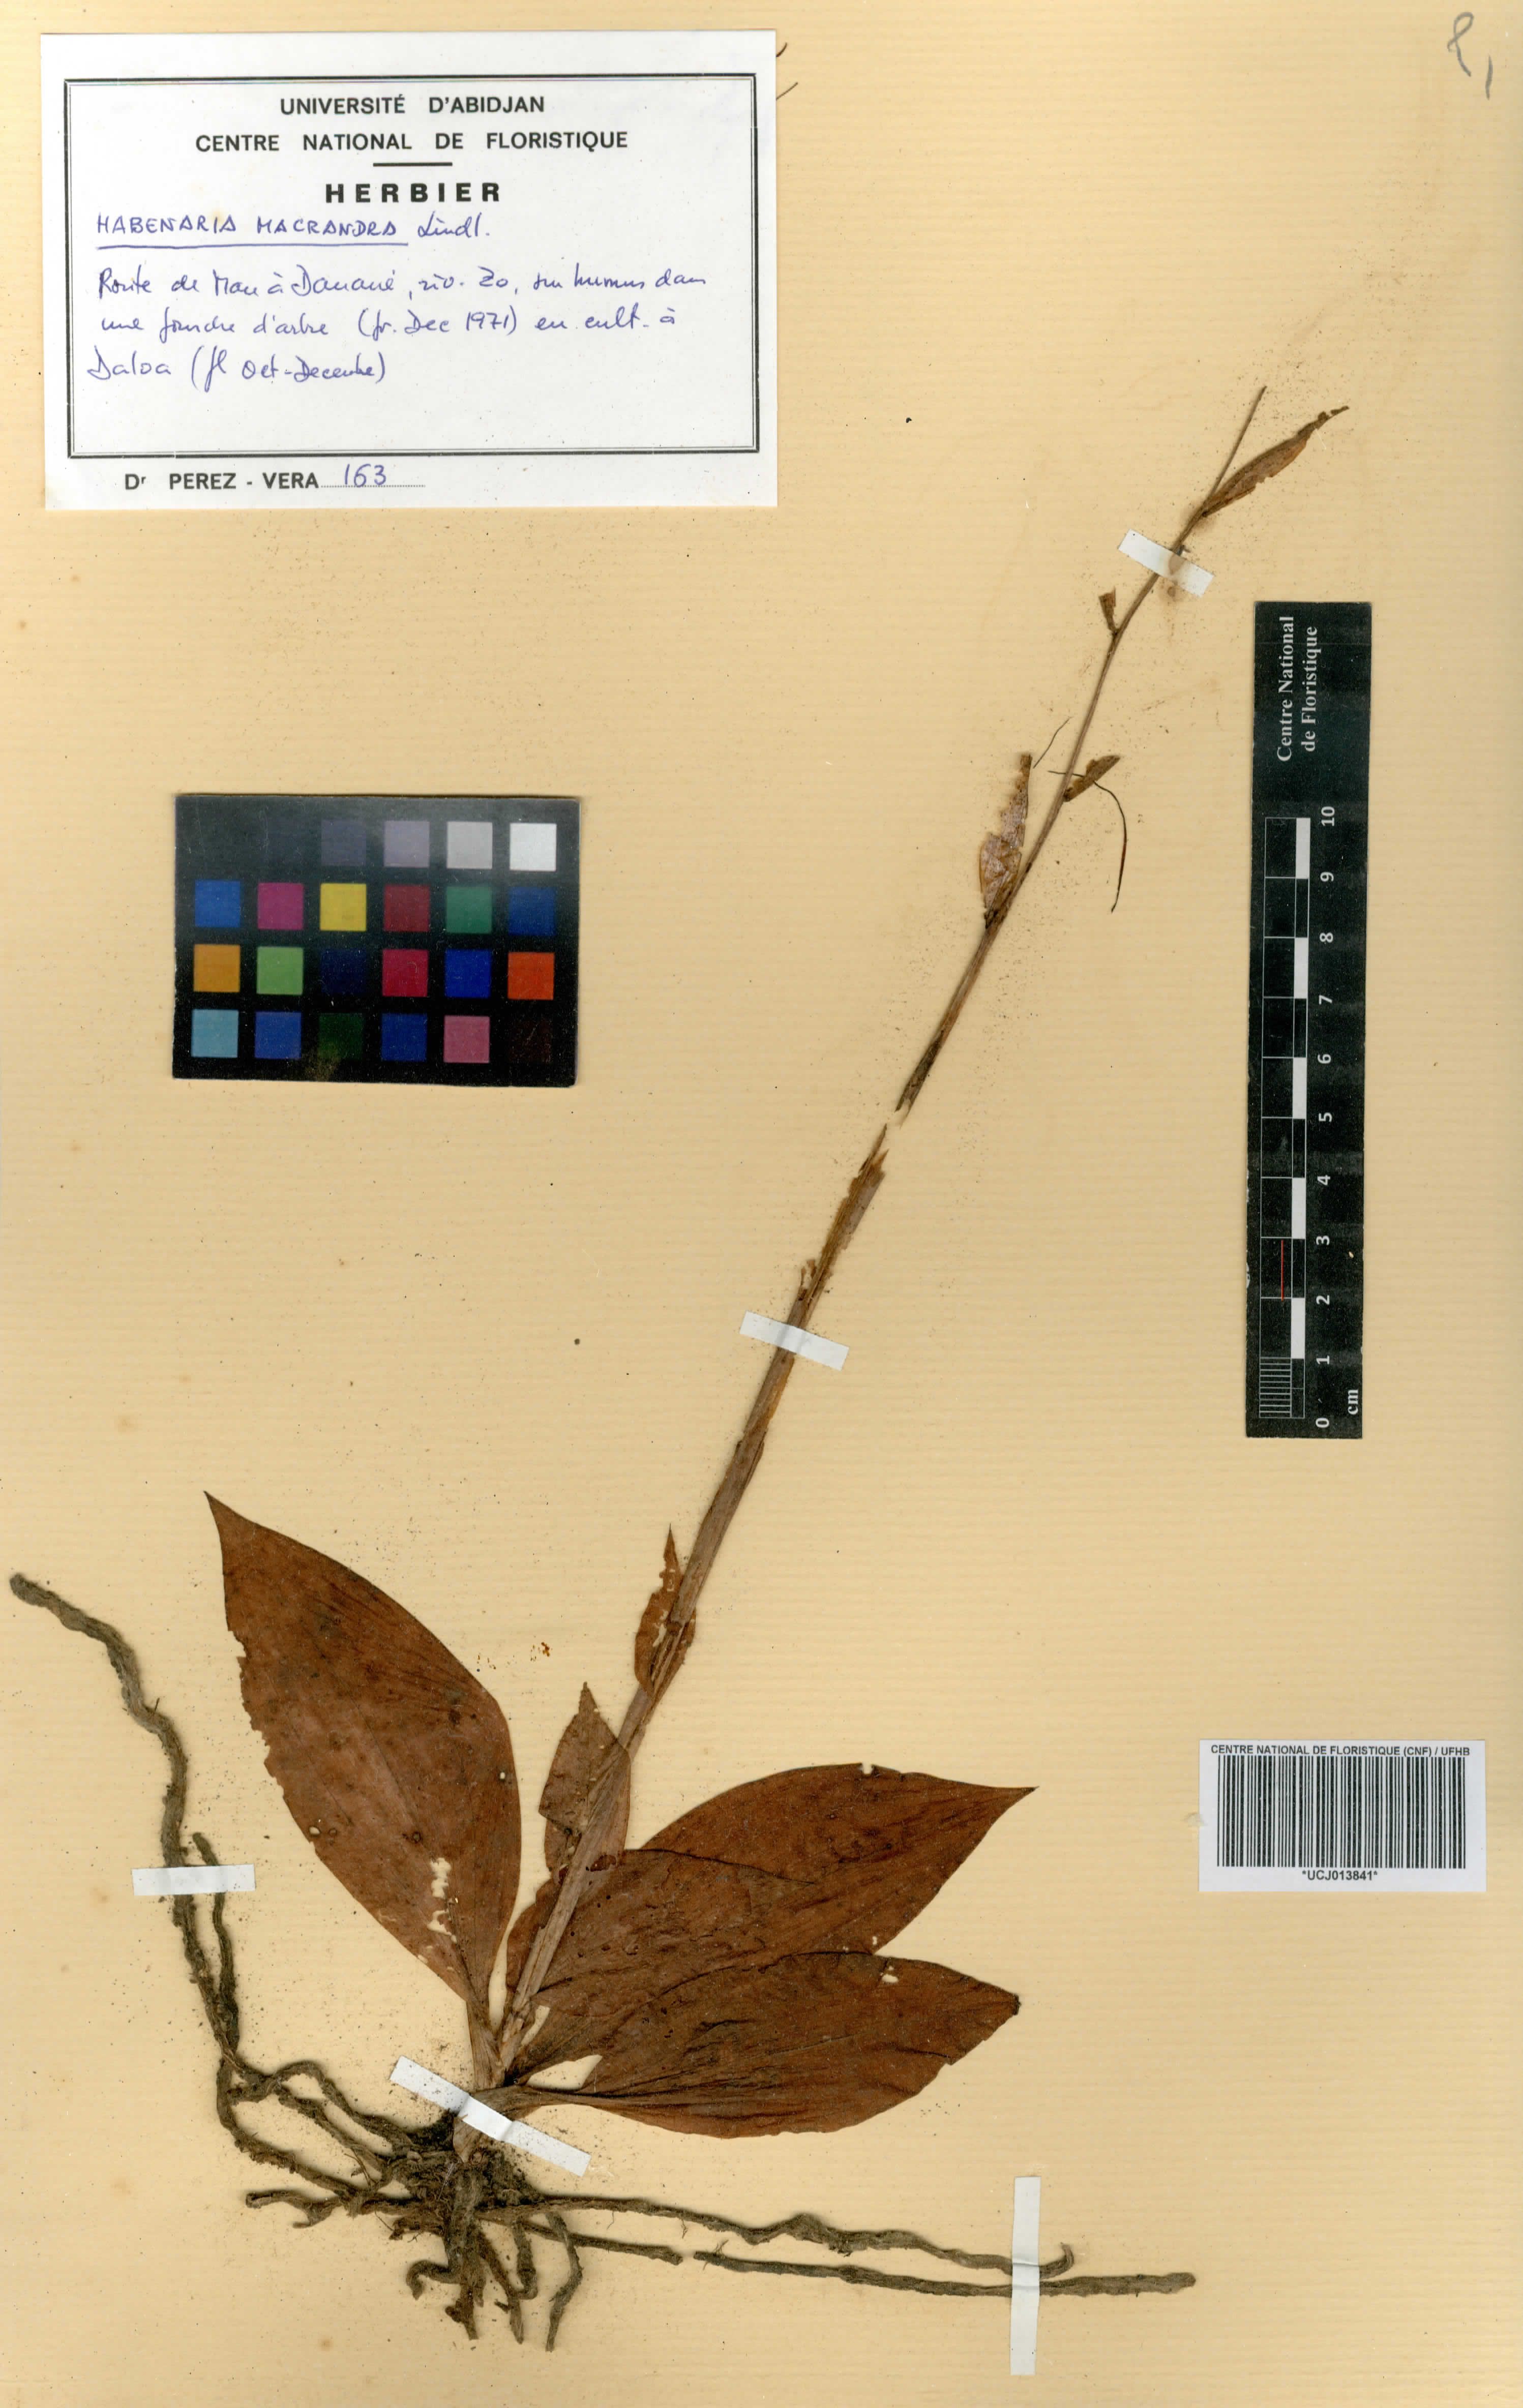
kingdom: Plantae
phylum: Tracheophyta
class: Liliopsida
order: Asparagales
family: Orchidaceae
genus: Habenaria
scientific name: Habenaria macrandra
